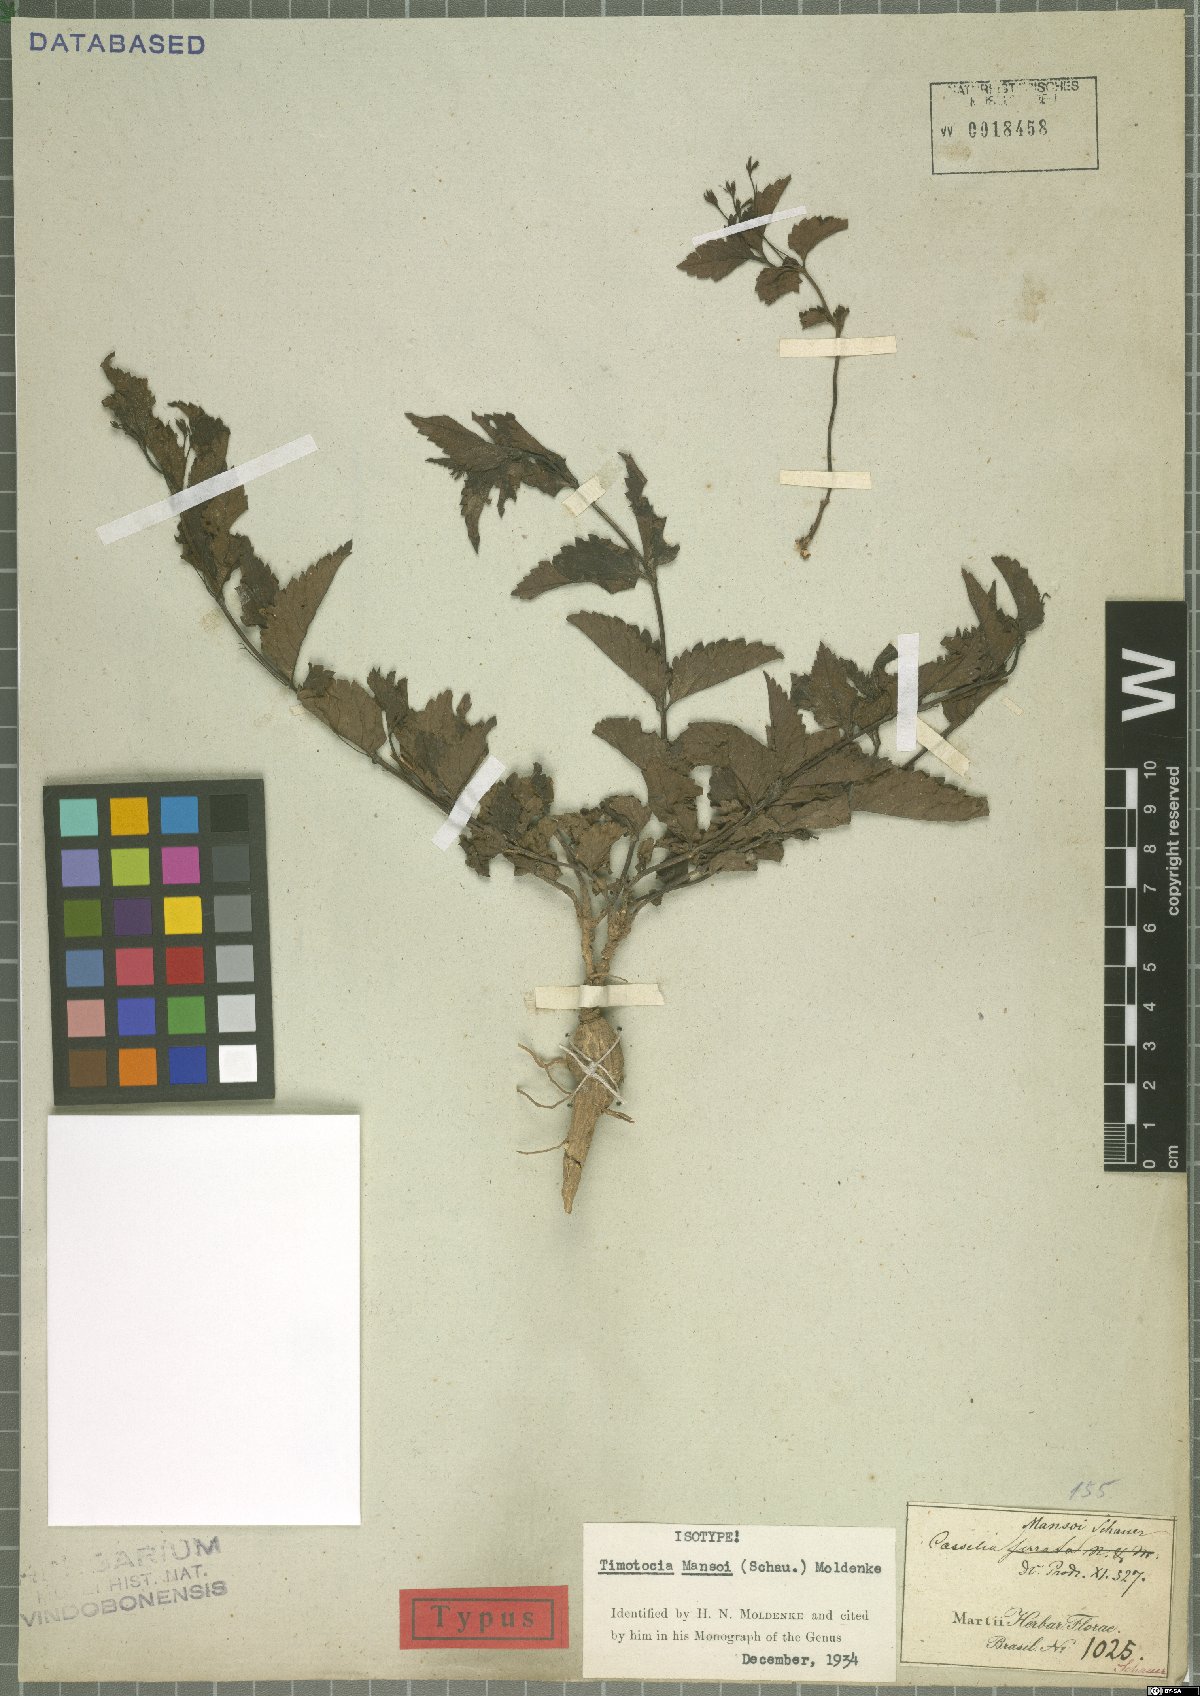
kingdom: Plantae
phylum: Tracheophyta
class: Magnoliopsida
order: Lamiales
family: Verbenaceae
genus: Casselia
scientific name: Casselia chamaedryfolia
